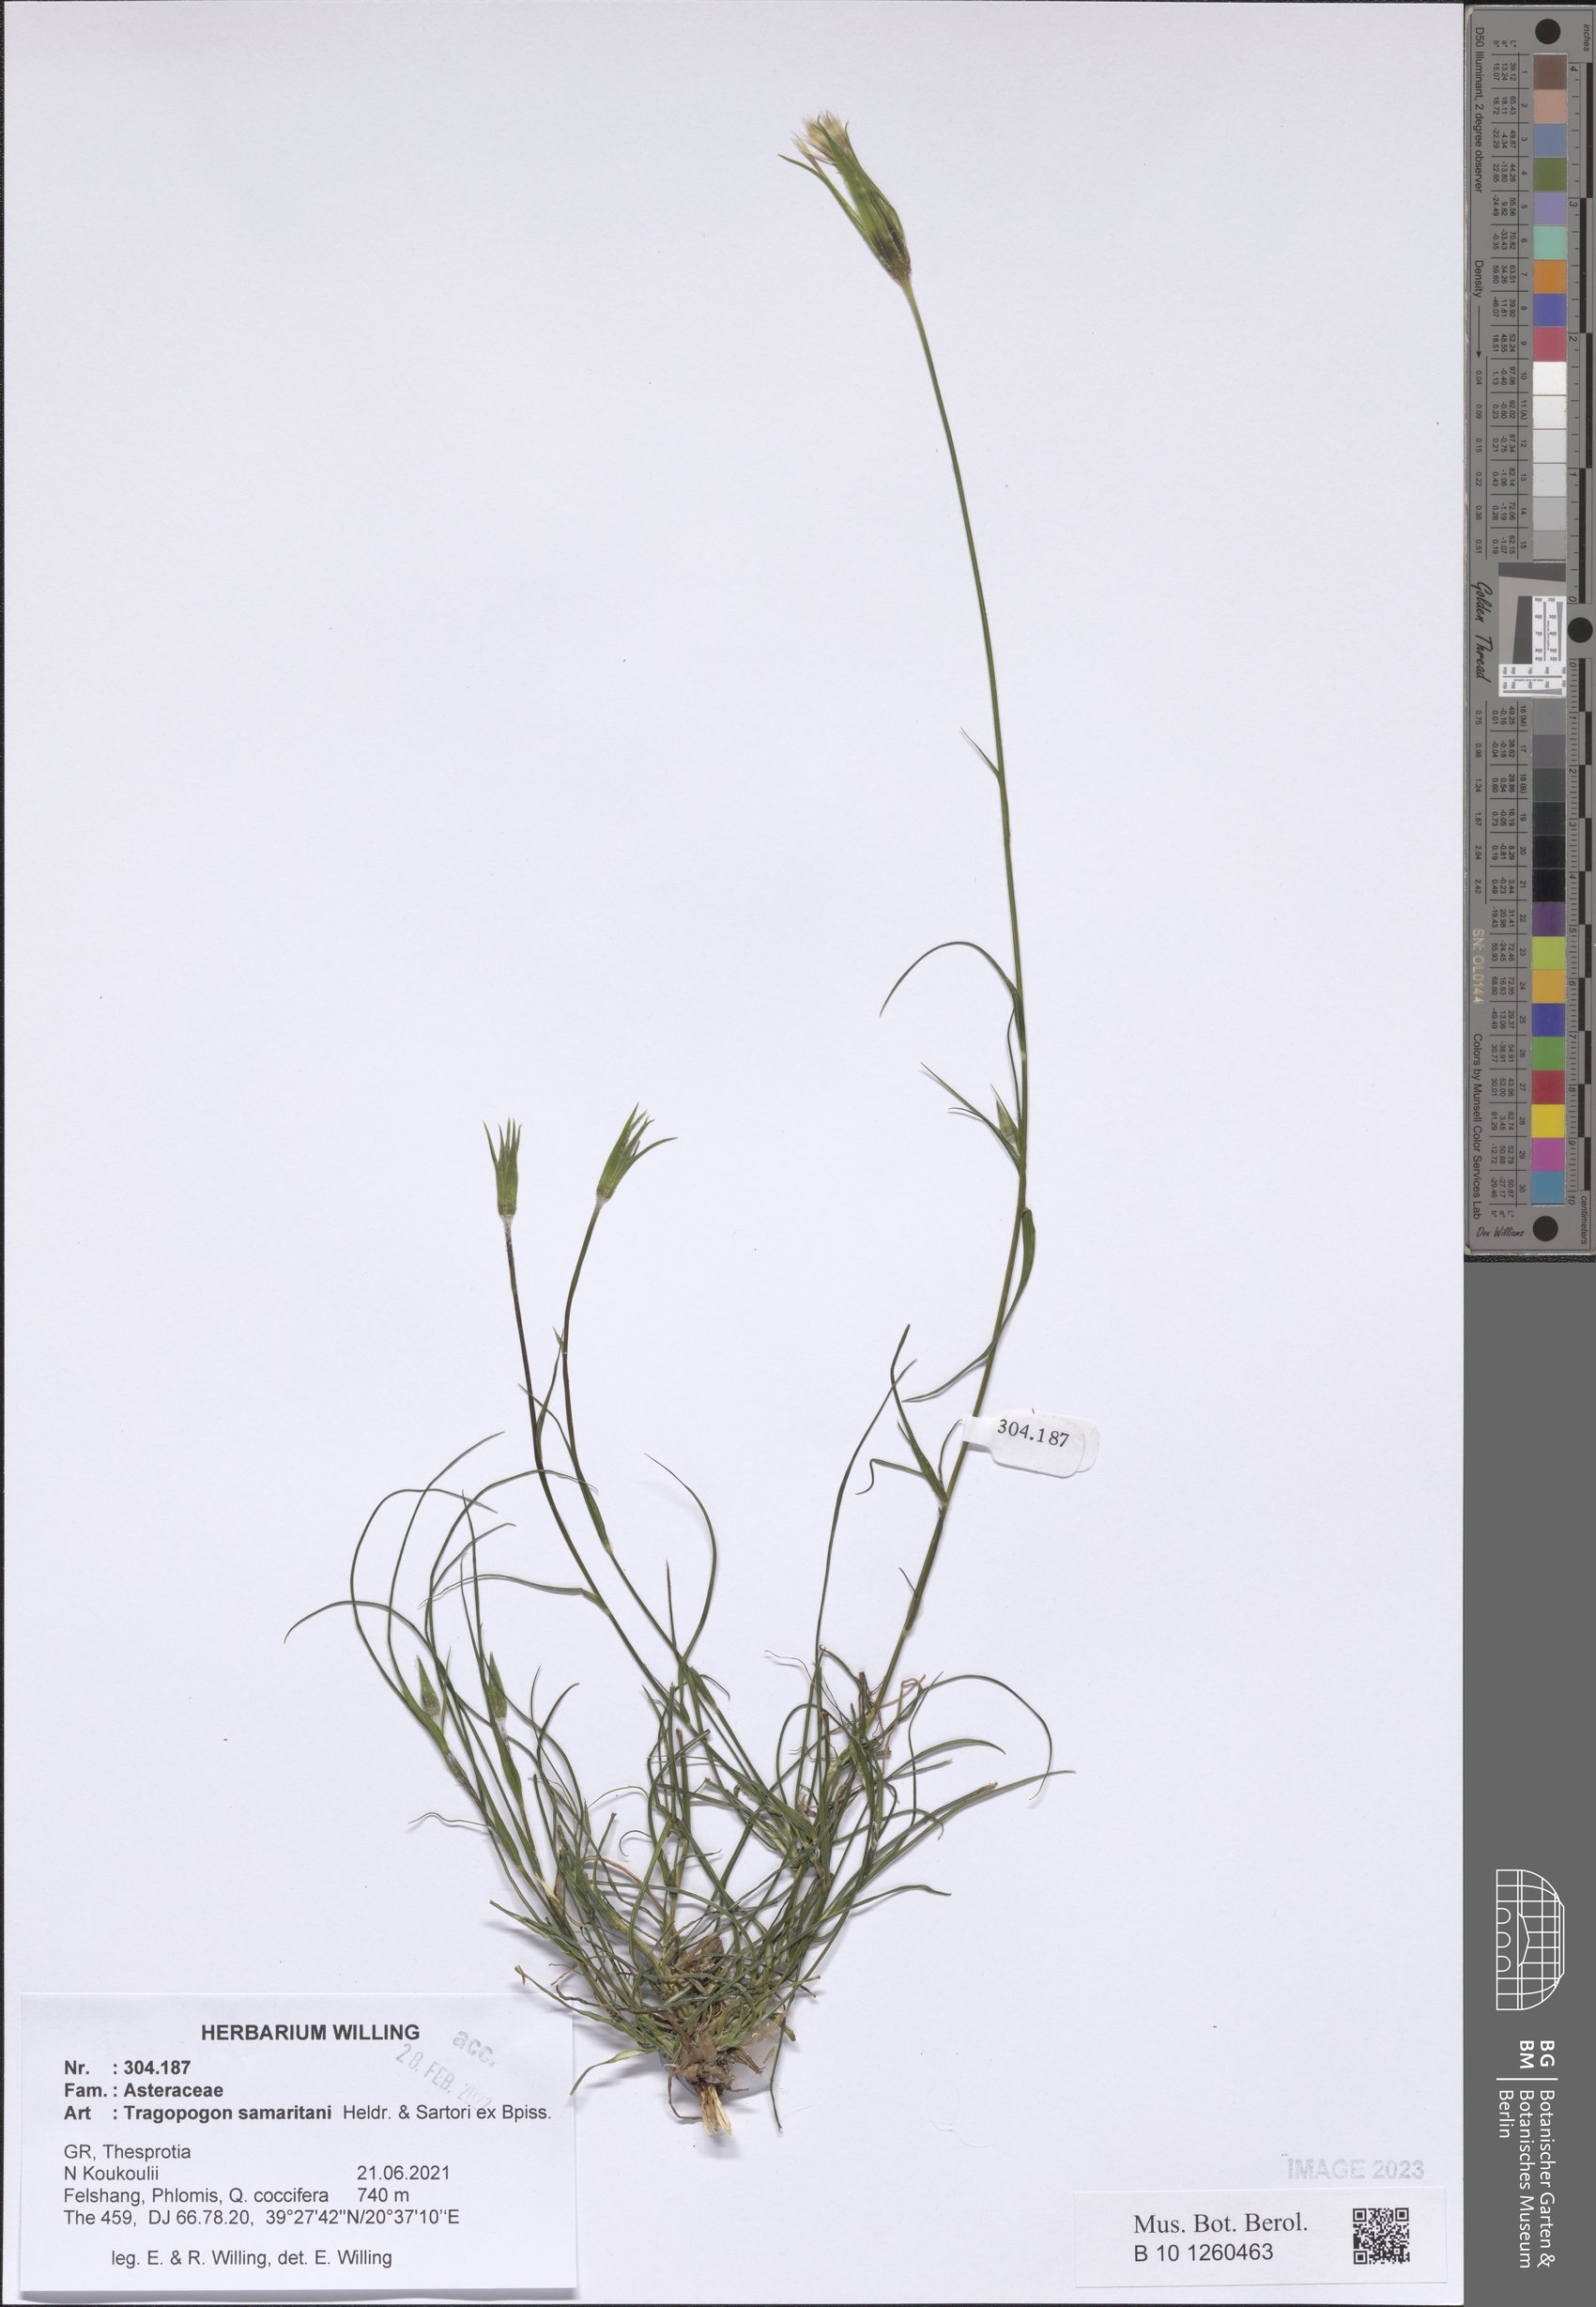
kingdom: Plantae
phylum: Tracheophyta
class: Magnoliopsida
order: Asterales
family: Asteraceae
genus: Tragopogon
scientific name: Tragopogon samaritani
